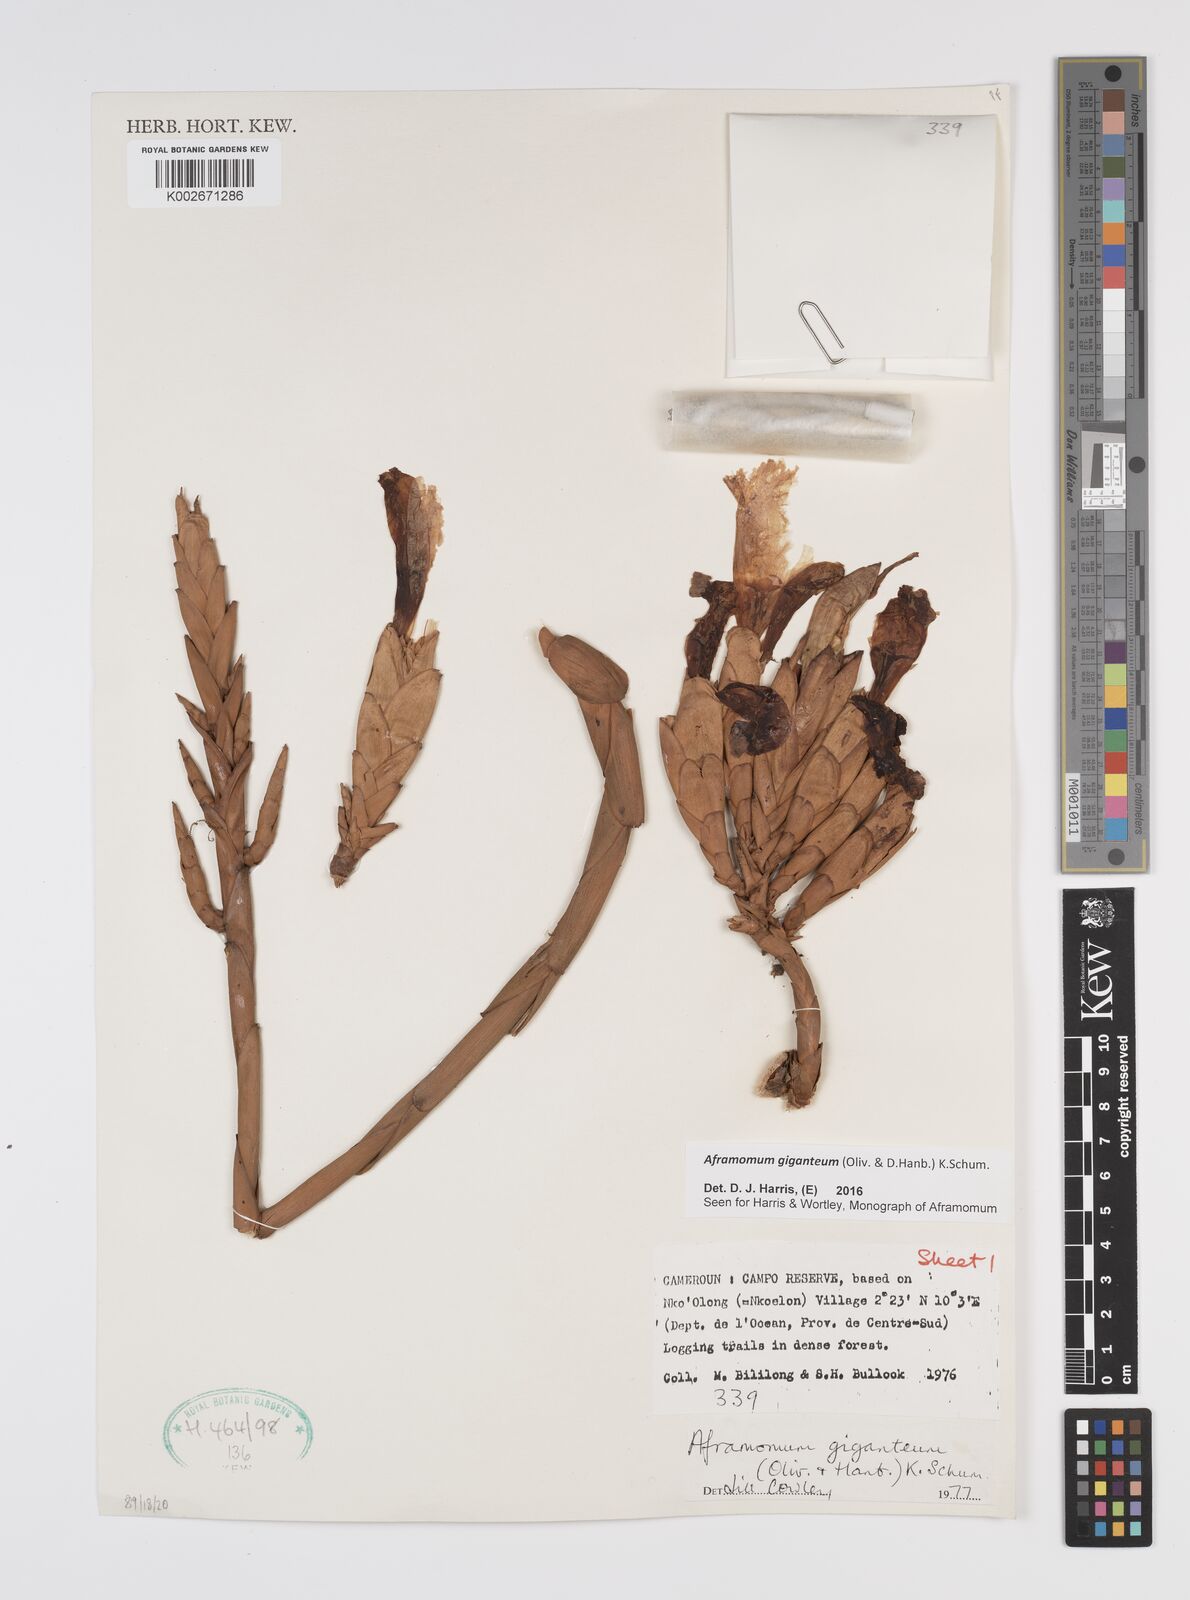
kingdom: Plantae
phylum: Tracheophyta
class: Liliopsida
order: Zingiberales
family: Zingiberaceae
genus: Aframomum
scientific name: Aframomum giganteum
